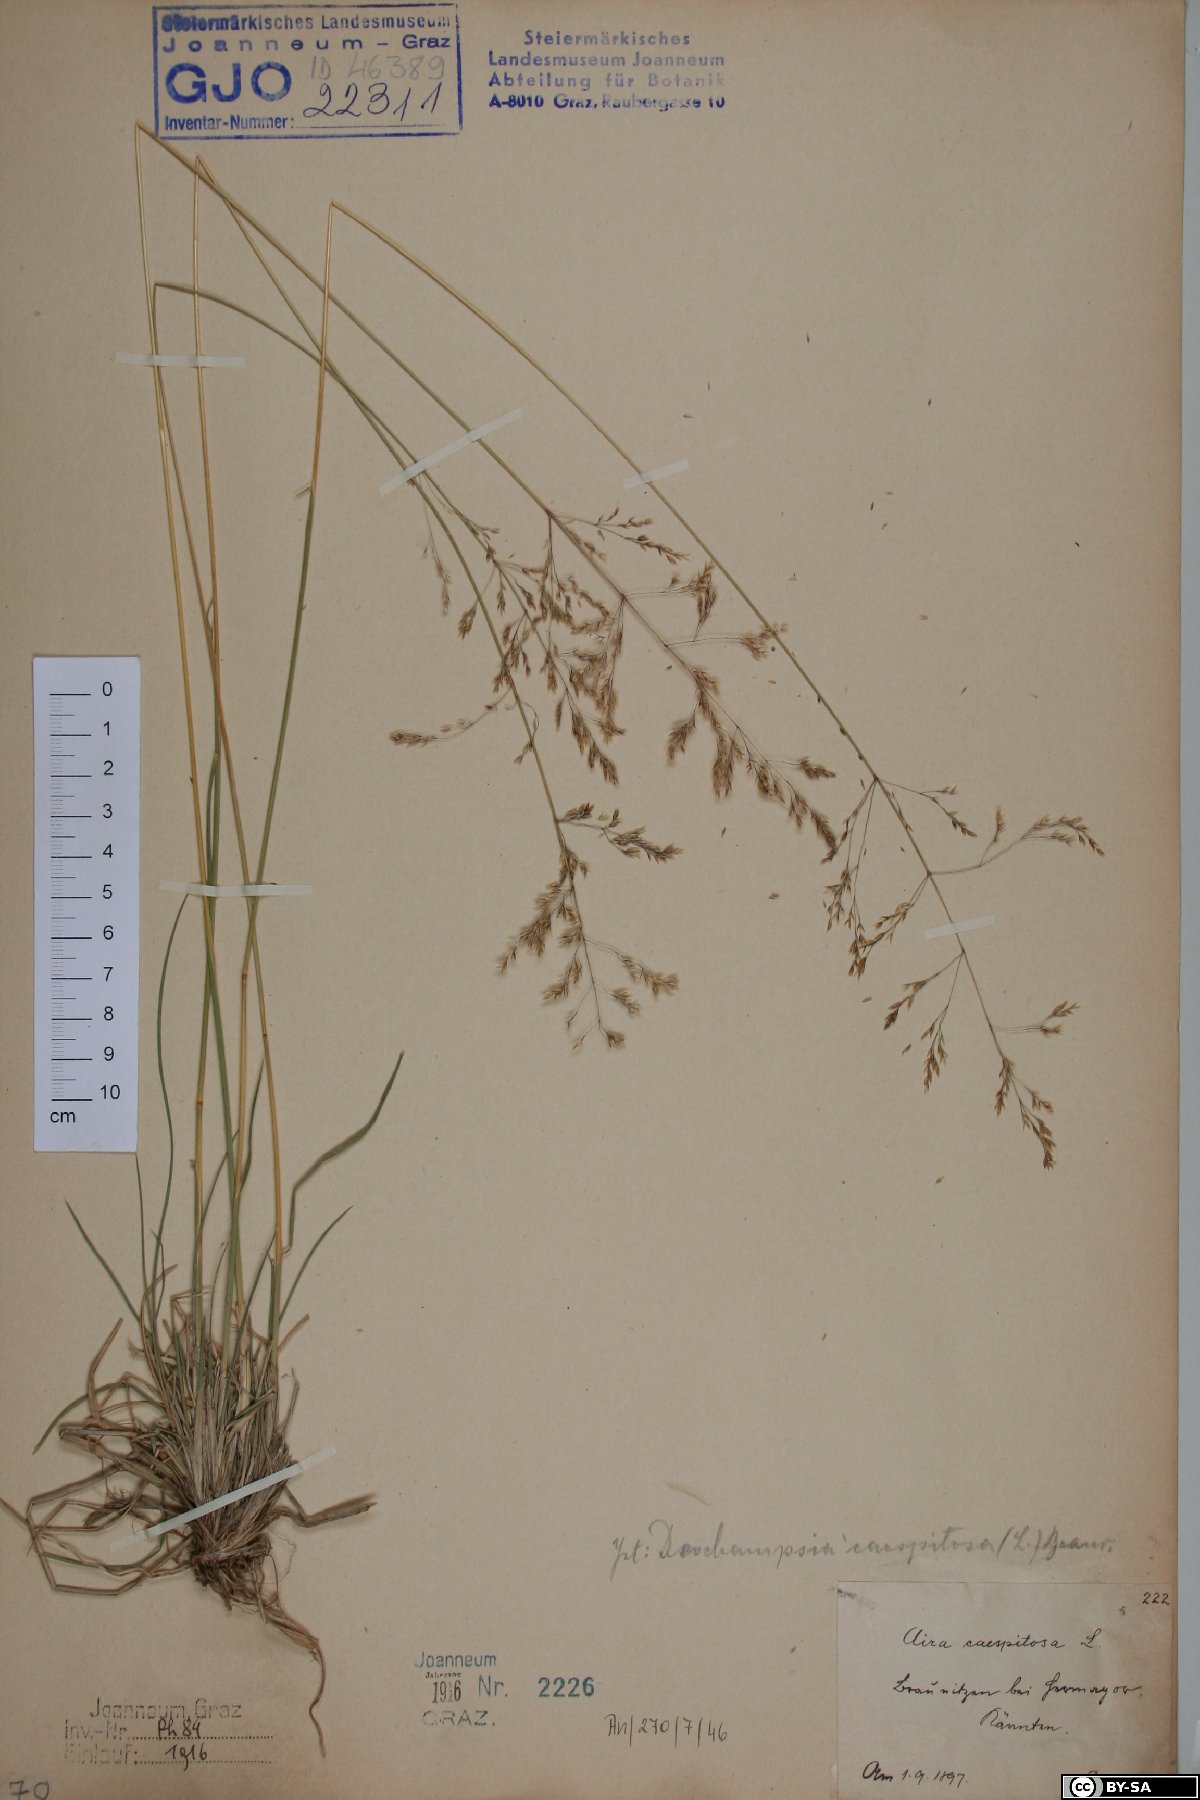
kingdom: Plantae
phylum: Tracheophyta
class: Liliopsida
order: Poales
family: Poaceae
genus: Deschampsia
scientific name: Deschampsia cespitosa
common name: Tufted hair-grass
